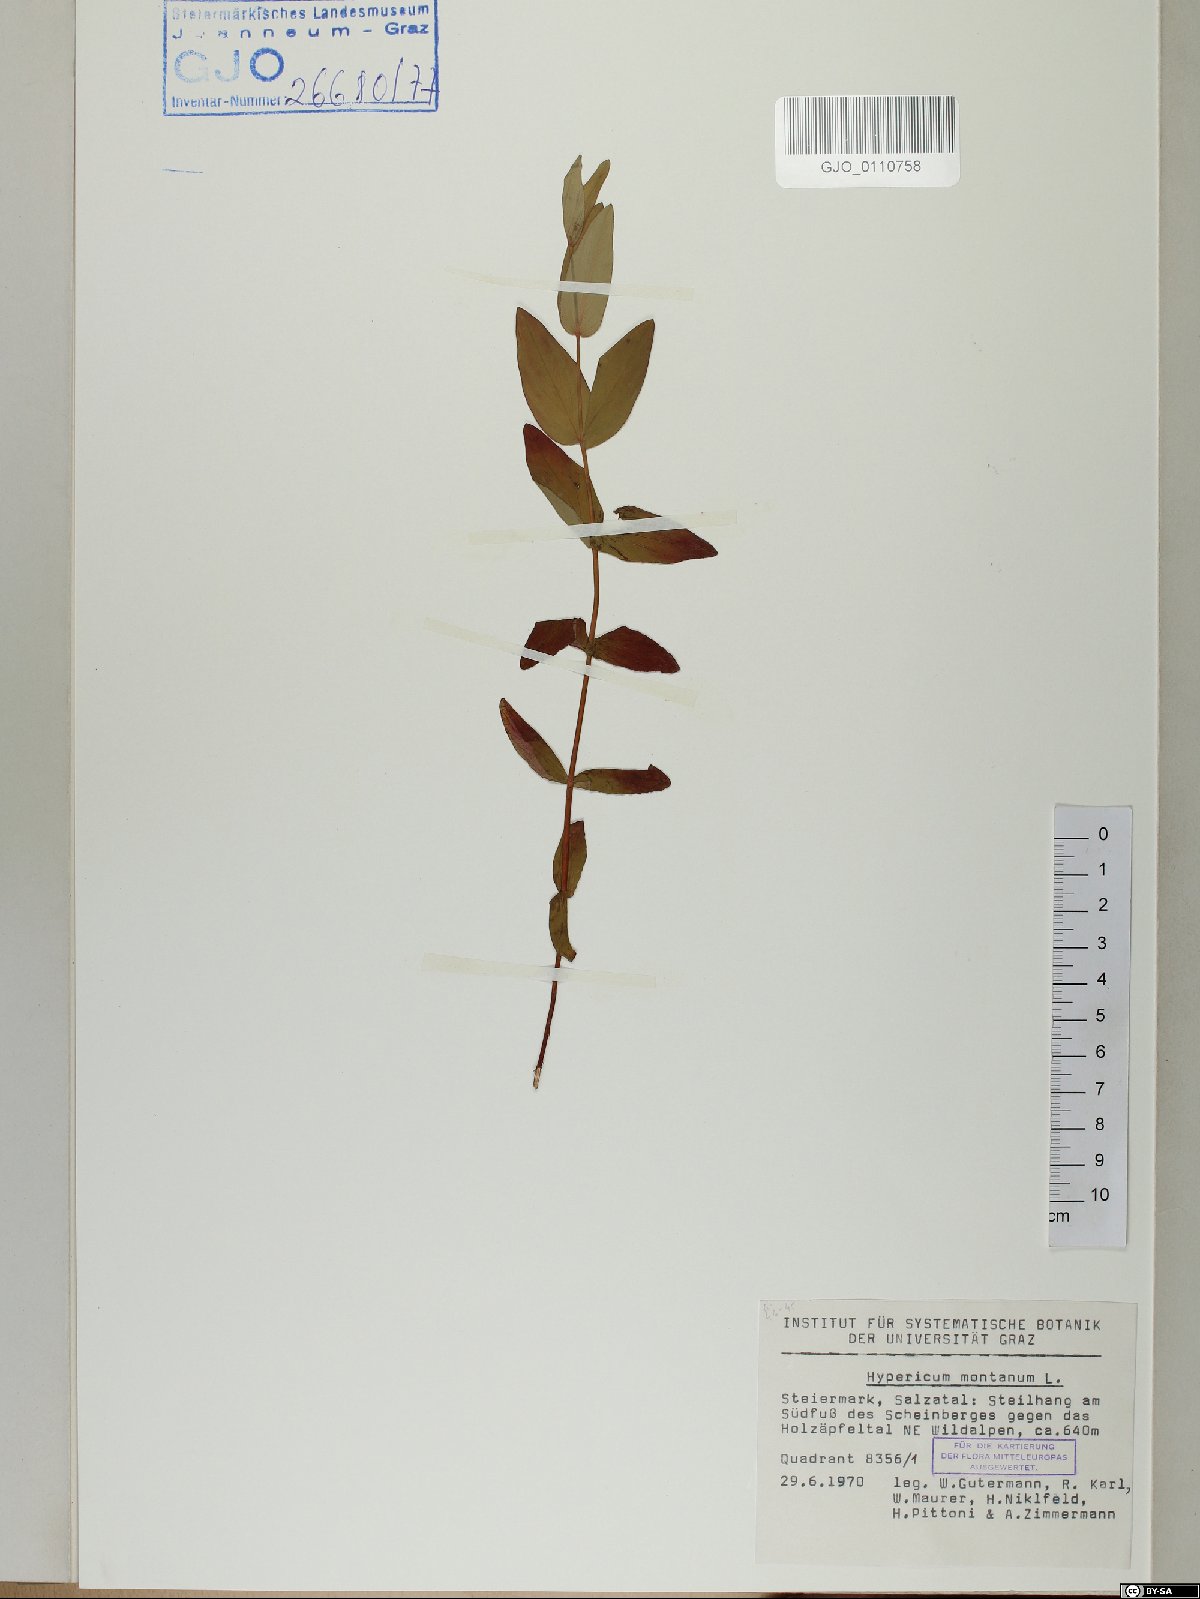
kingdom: Plantae
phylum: Tracheophyta
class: Magnoliopsida
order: Malpighiales
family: Hypericaceae
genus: Hypericum
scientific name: Hypericum montanum
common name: Pale st. john's-wort
